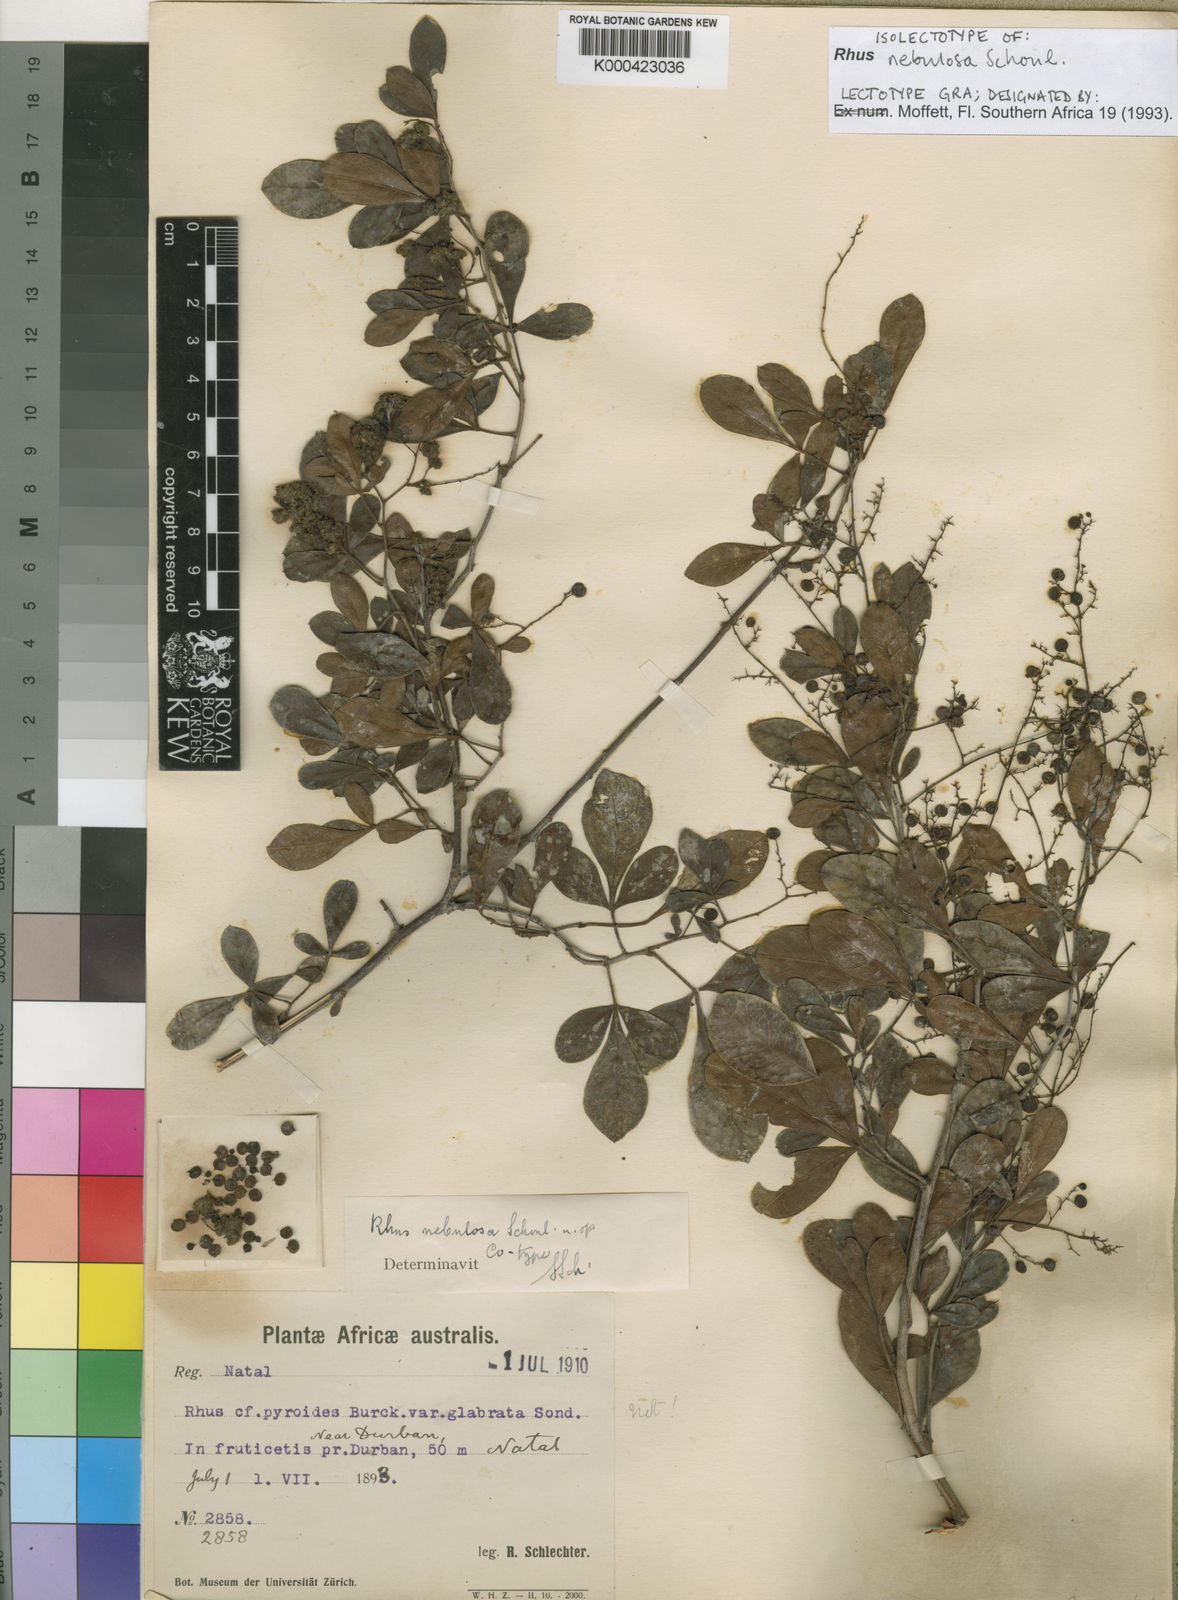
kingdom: Plantae
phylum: Tracheophyta
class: Magnoliopsida
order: Sapindales
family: Anacardiaceae
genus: Rhus
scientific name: Rhus
